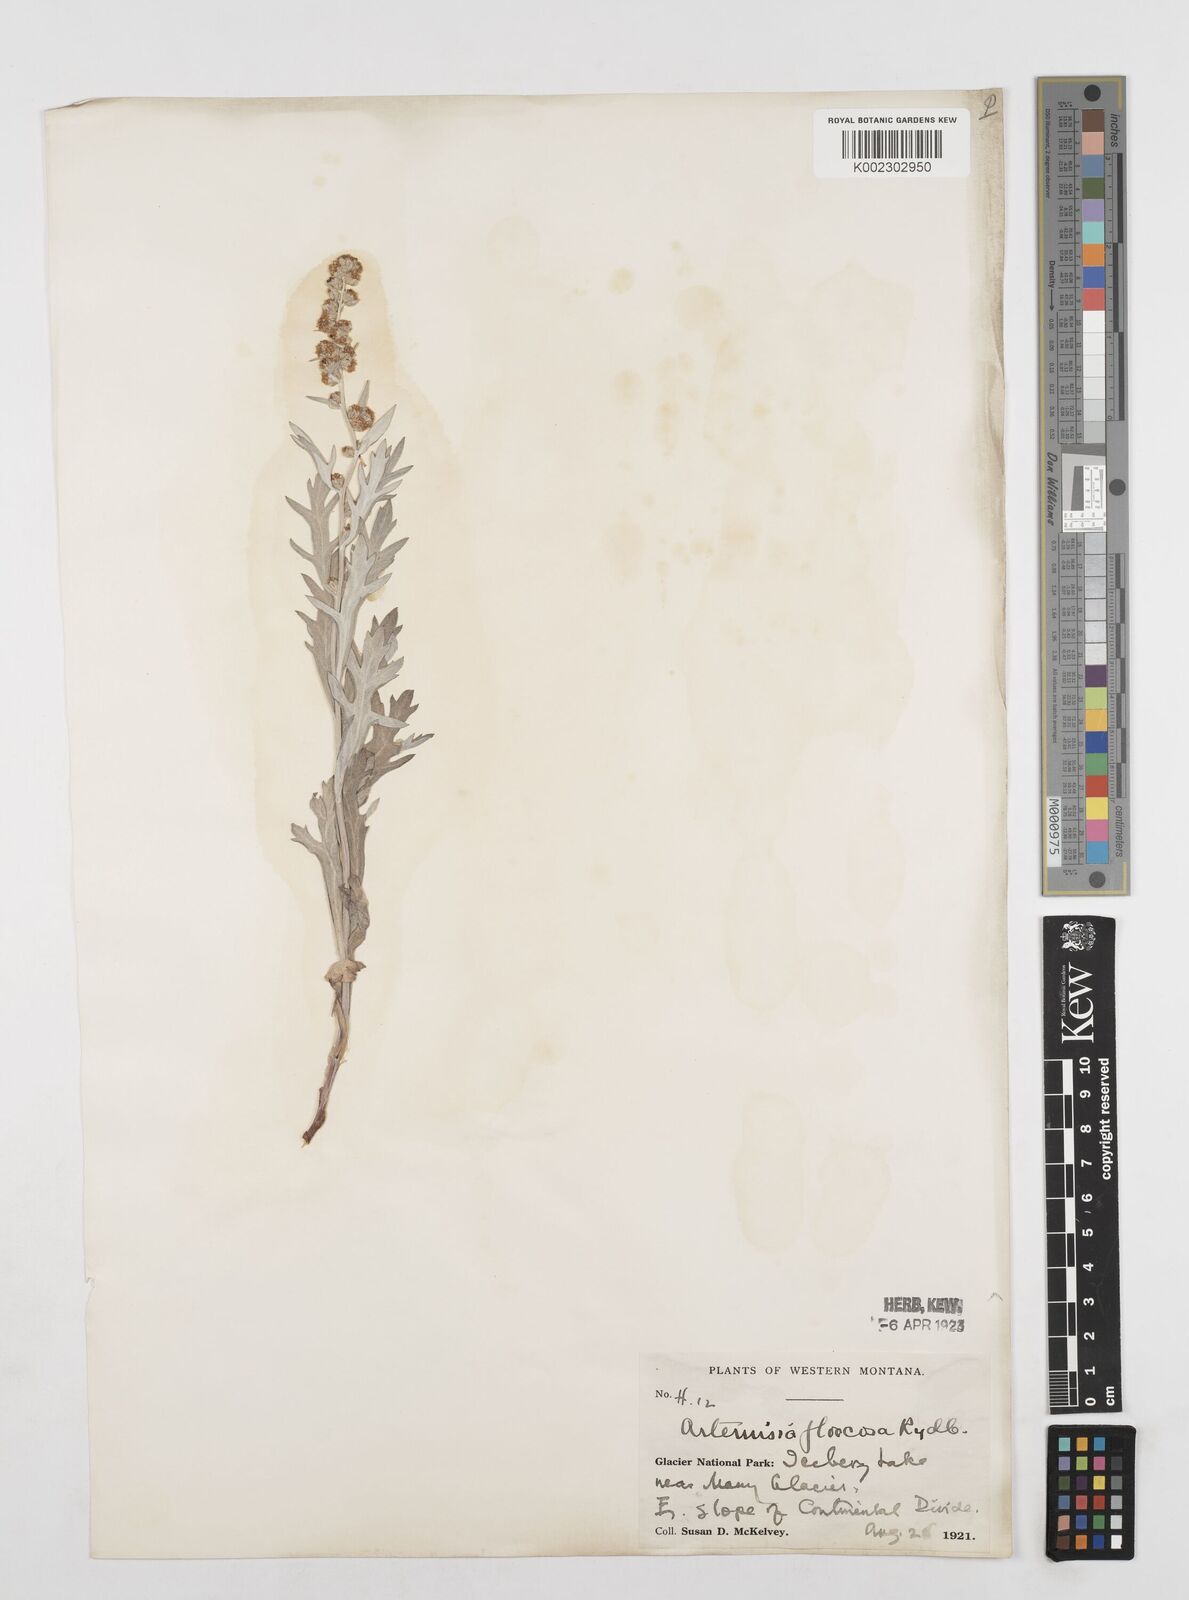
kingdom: Plantae
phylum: Tracheophyta
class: Magnoliopsida
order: Asterales
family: Asteraceae
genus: Artemisia
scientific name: Artemisia ludoviciana
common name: Western mugwort
